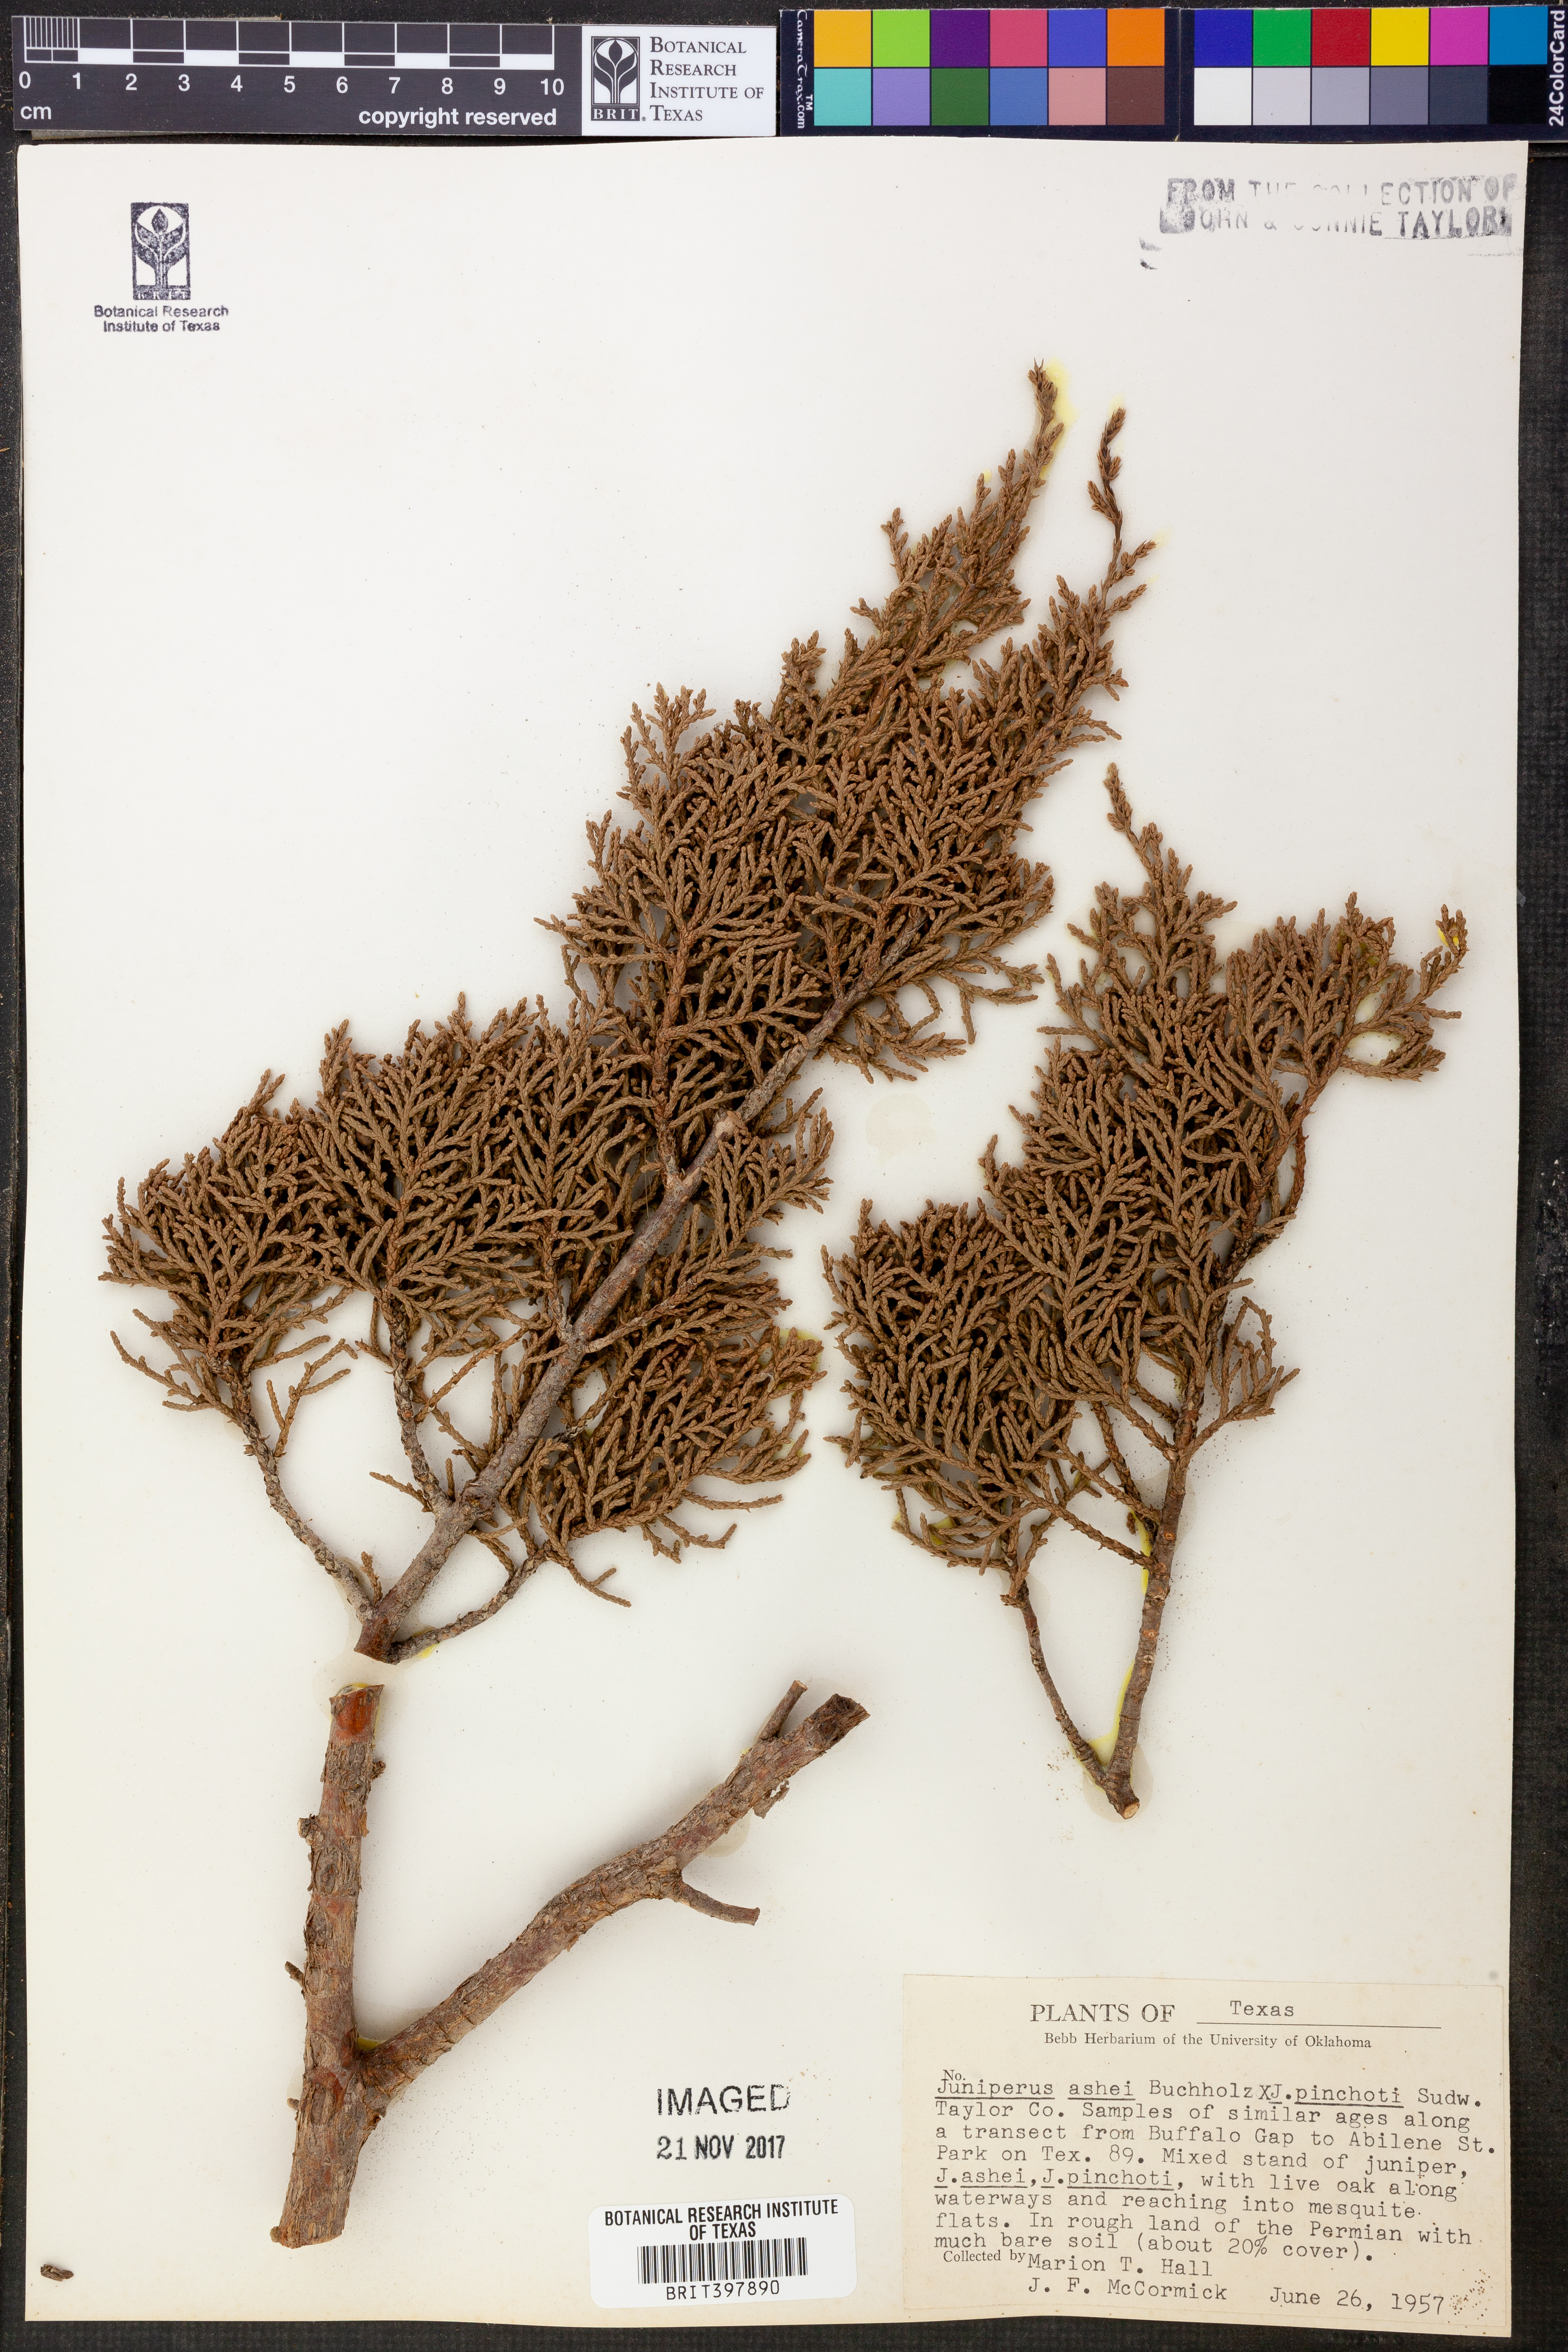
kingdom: Plantae
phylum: Tracheophyta
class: Pinopsida
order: Pinales
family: Cupressaceae
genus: Juniperus
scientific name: Juniperus ashei
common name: Mexican juniper
